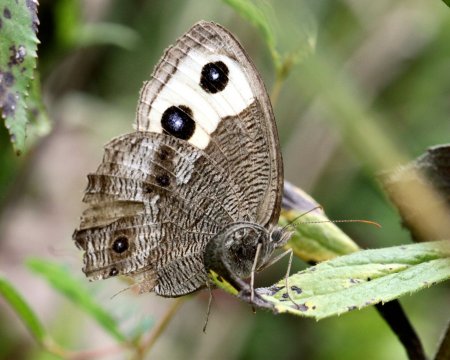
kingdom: Animalia
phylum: Arthropoda
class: Insecta
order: Lepidoptera
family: Nymphalidae
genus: Cercyonis
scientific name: Cercyonis pegala
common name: Common Wood-Nymph
